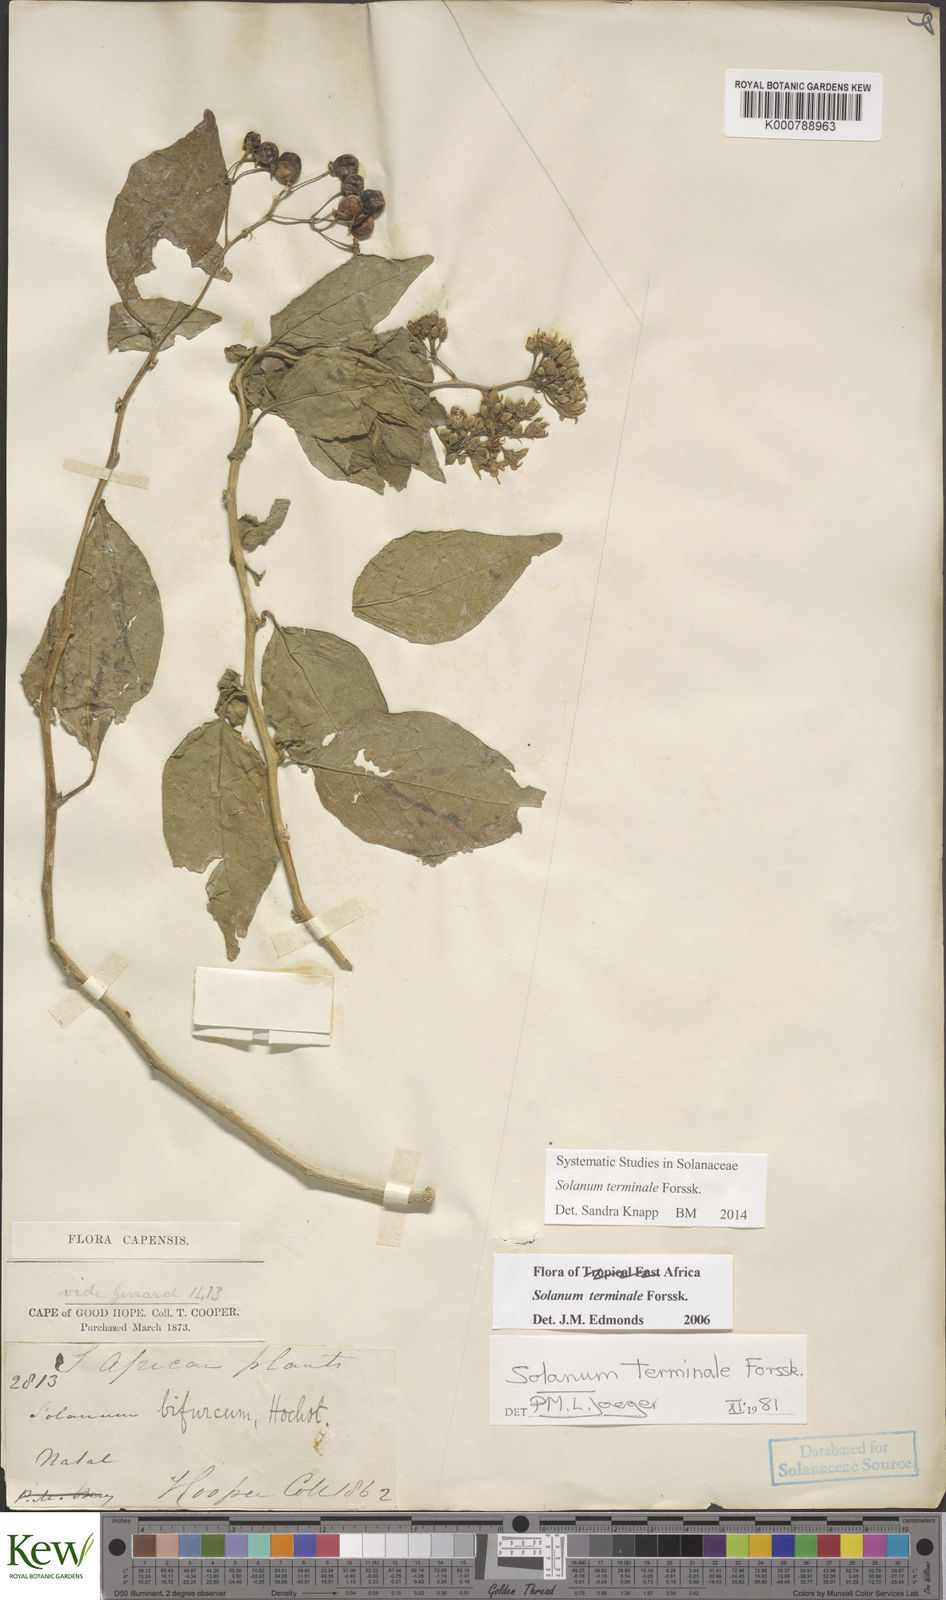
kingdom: Plantae
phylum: Tracheophyta
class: Magnoliopsida
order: Solanales
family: Solanaceae
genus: Solanum
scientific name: Solanum terminale
